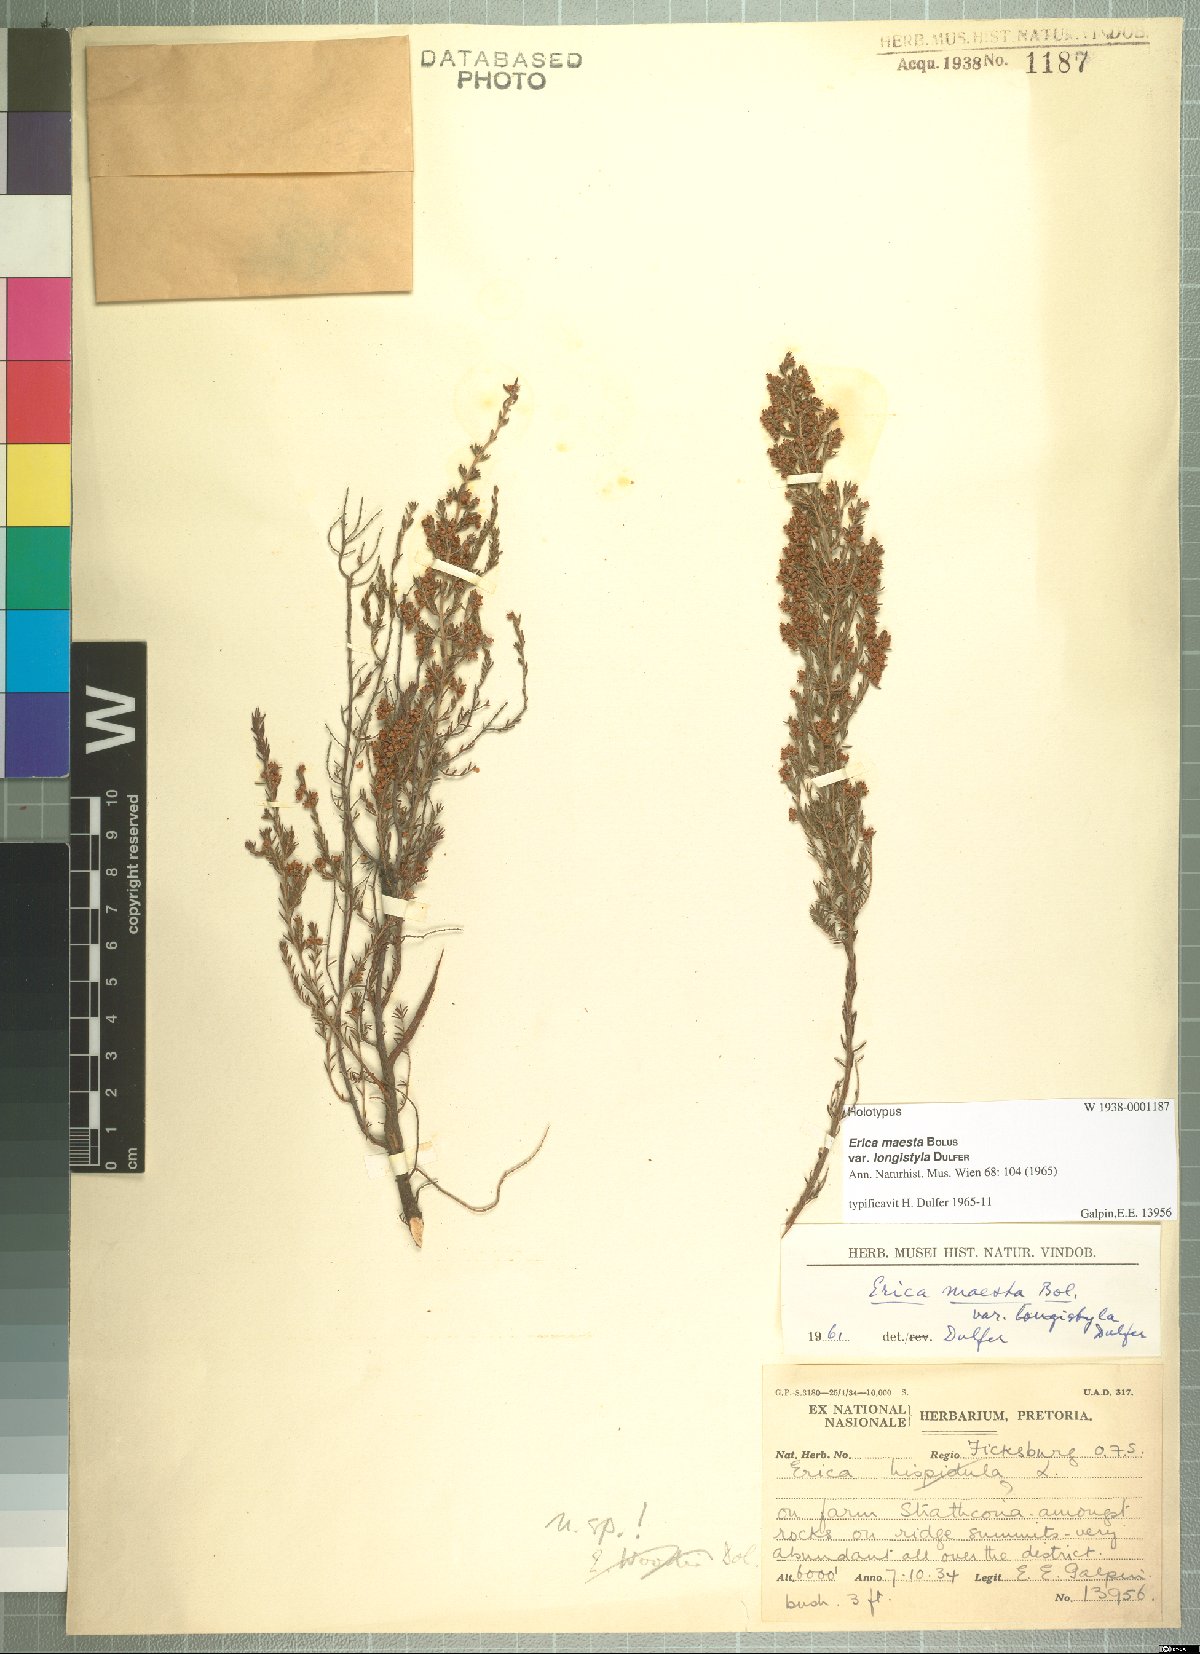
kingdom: Plantae
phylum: Tracheophyta
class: Magnoliopsida
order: Ericales
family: Ericaceae
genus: Erica
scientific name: Erica maesta
